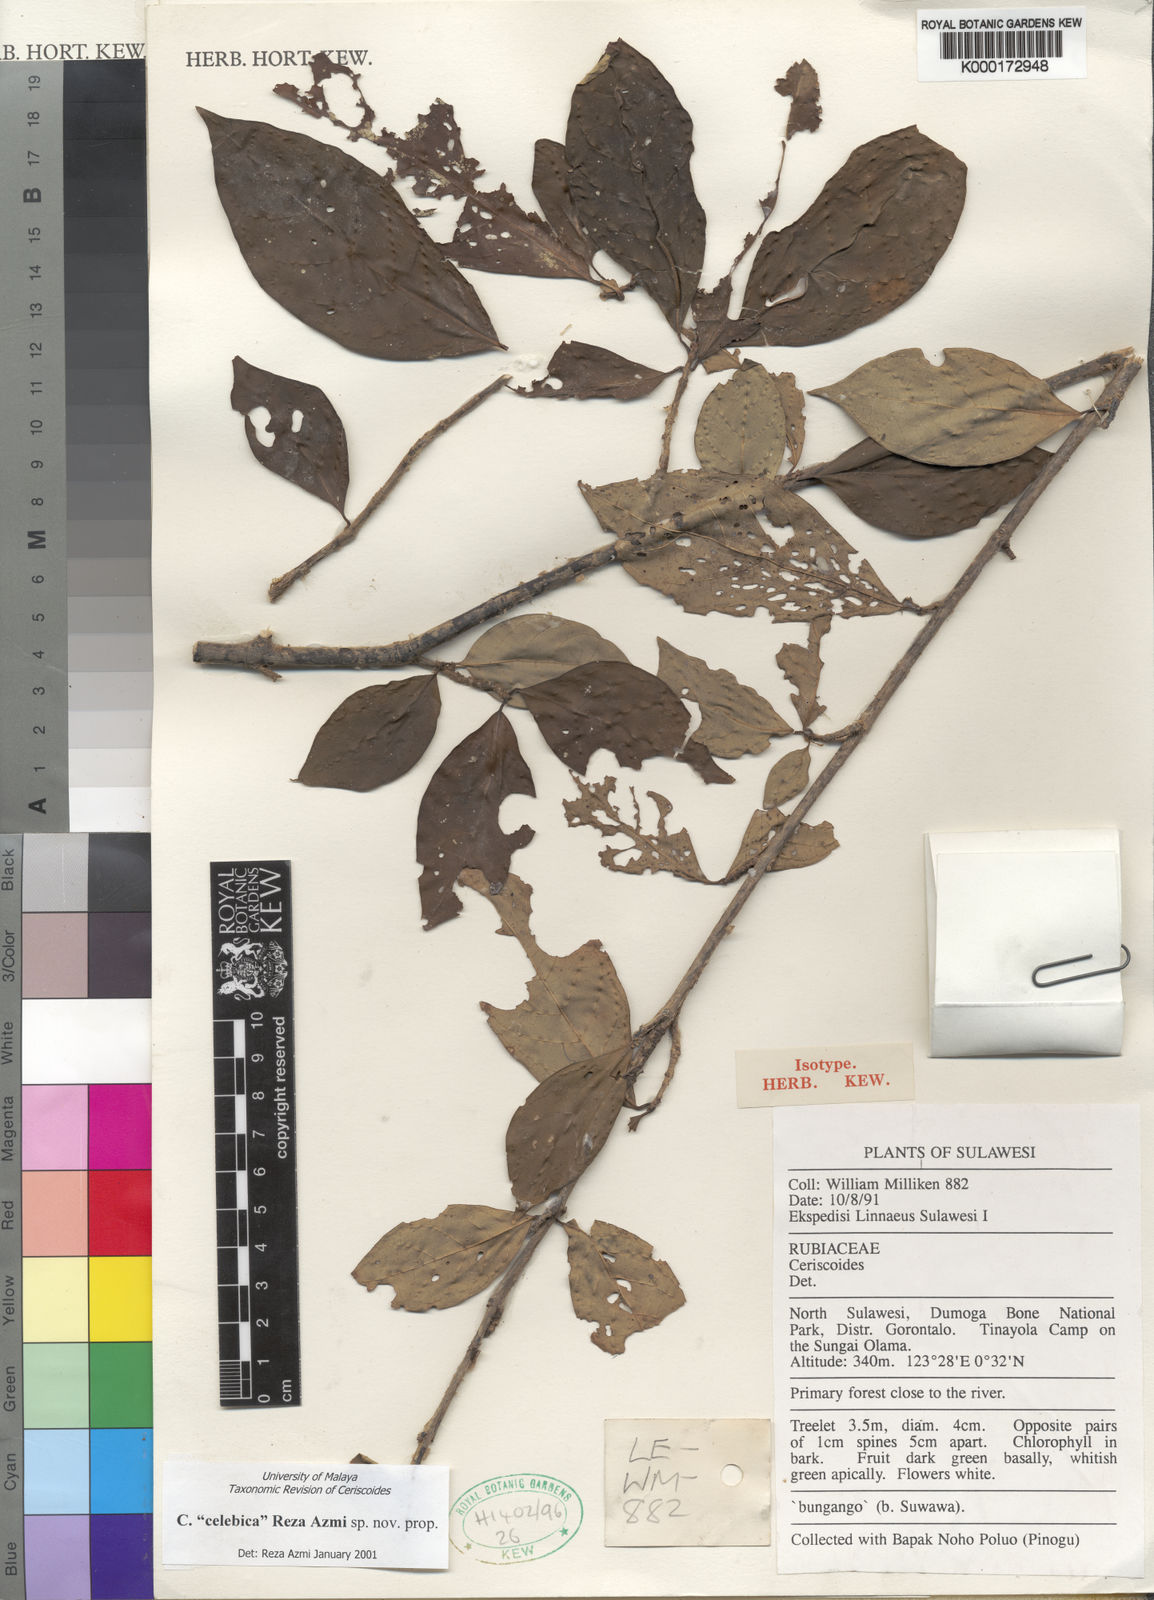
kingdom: Plantae
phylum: Tracheophyta
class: Magnoliopsida
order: Gentianales
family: Rubiaceae
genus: Ceriscoides
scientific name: Ceriscoides celebica
